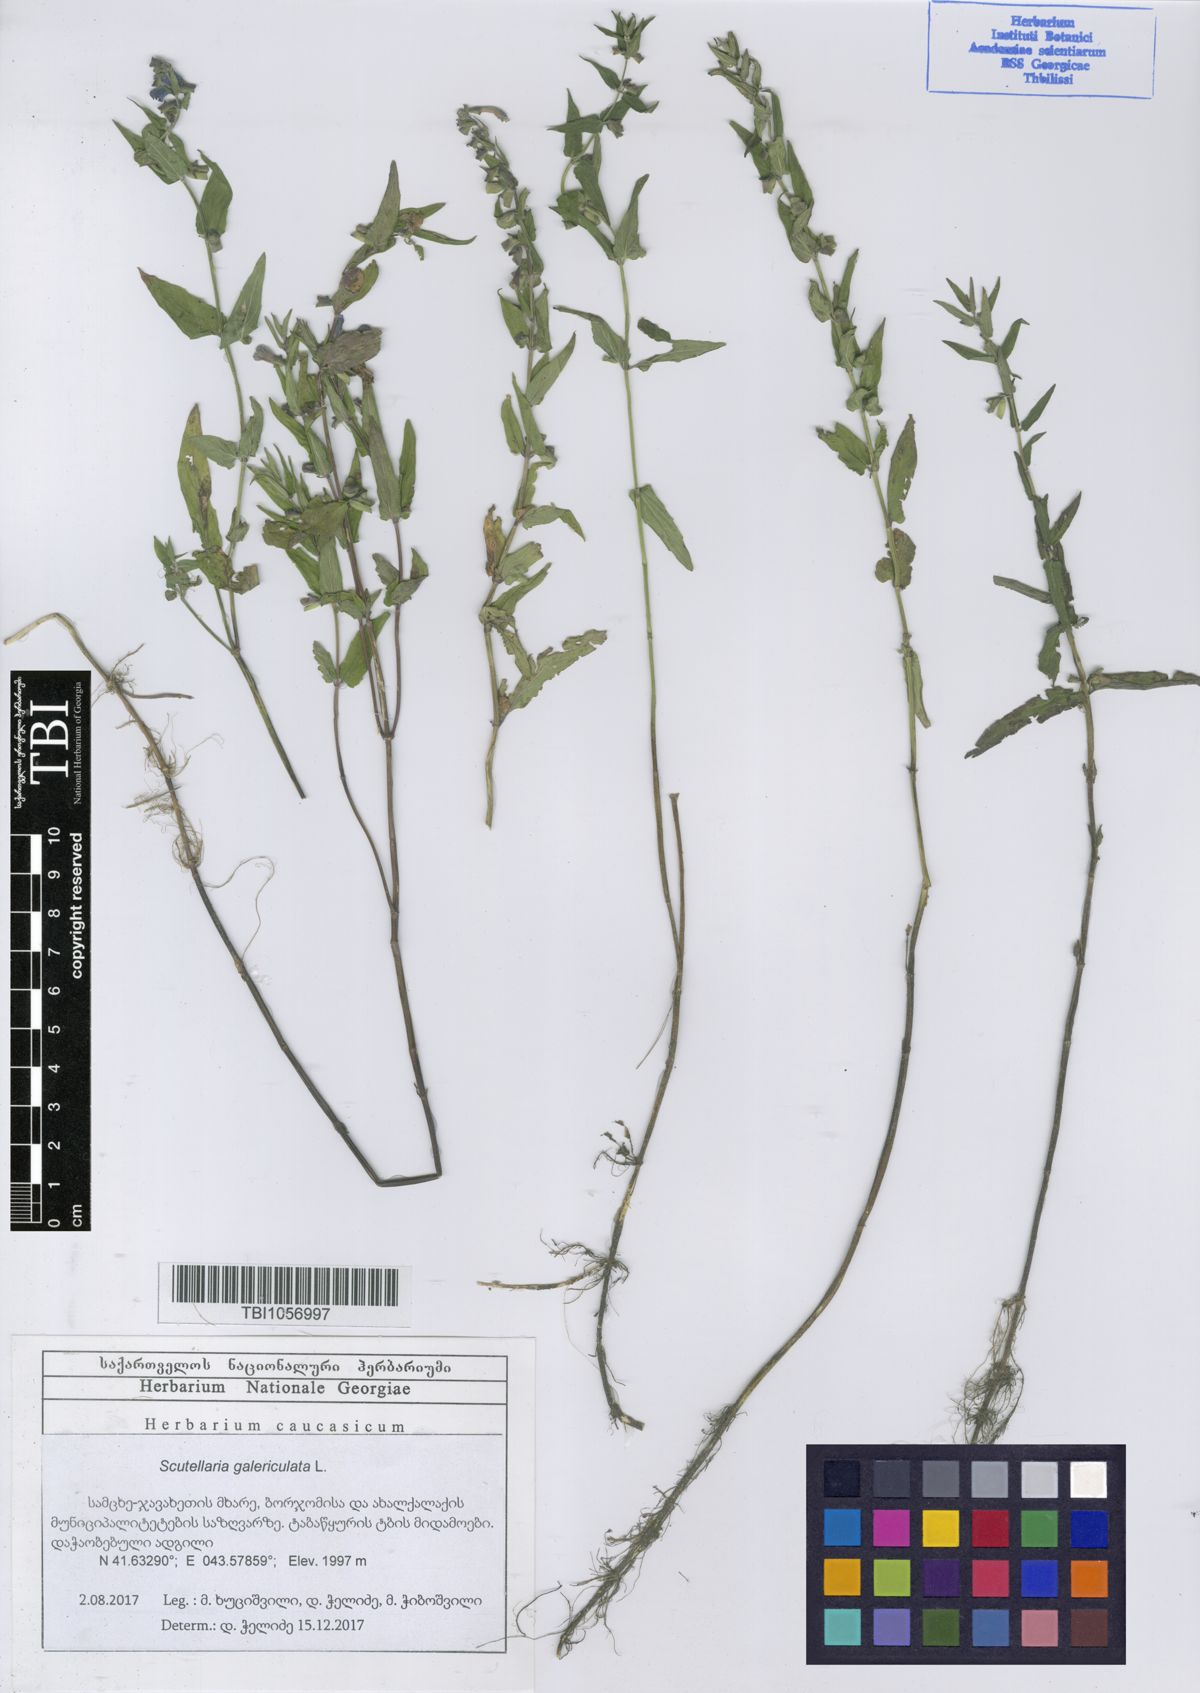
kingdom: Plantae
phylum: Tracheophyta
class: Magnoliopsida
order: Lamiales
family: Lamiaceae
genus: Scutellaria
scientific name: Scutellaria galericulata
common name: Skullcap
